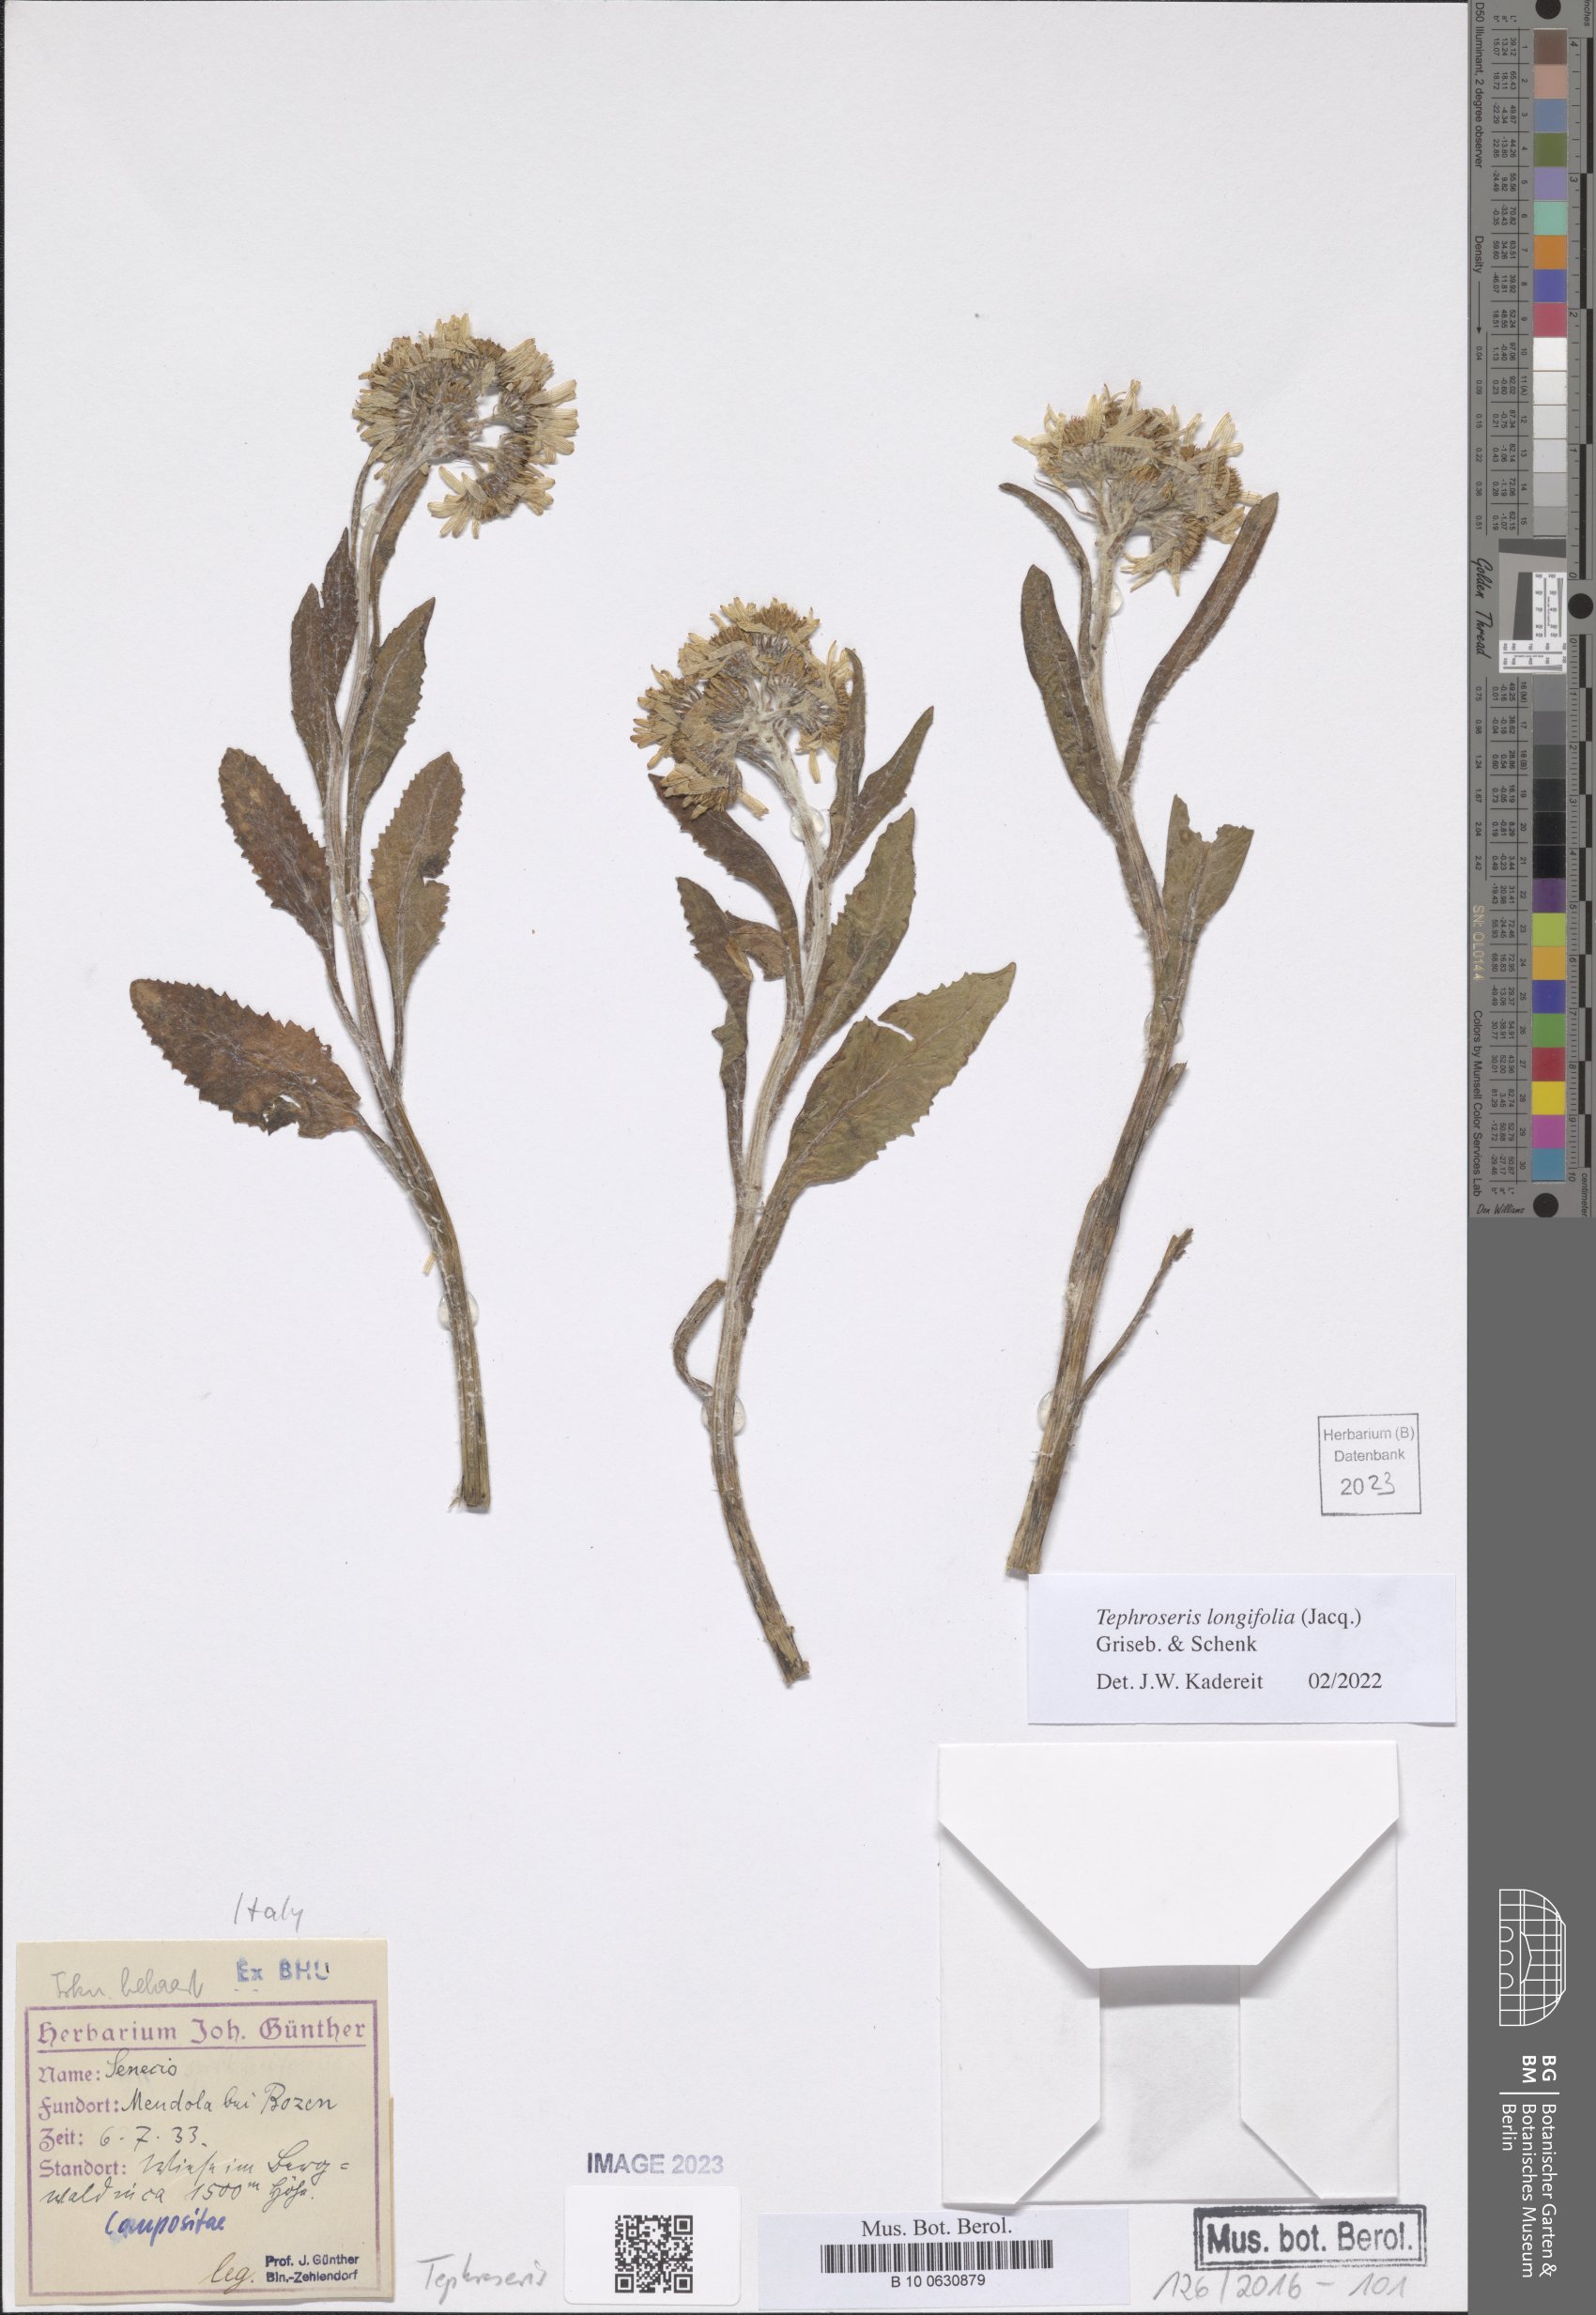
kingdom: Plantae
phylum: Tracheophyta
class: Magnoliopsida
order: Asterales
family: Asteraceae
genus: Tephroseris
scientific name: Tephroseris longifolia
